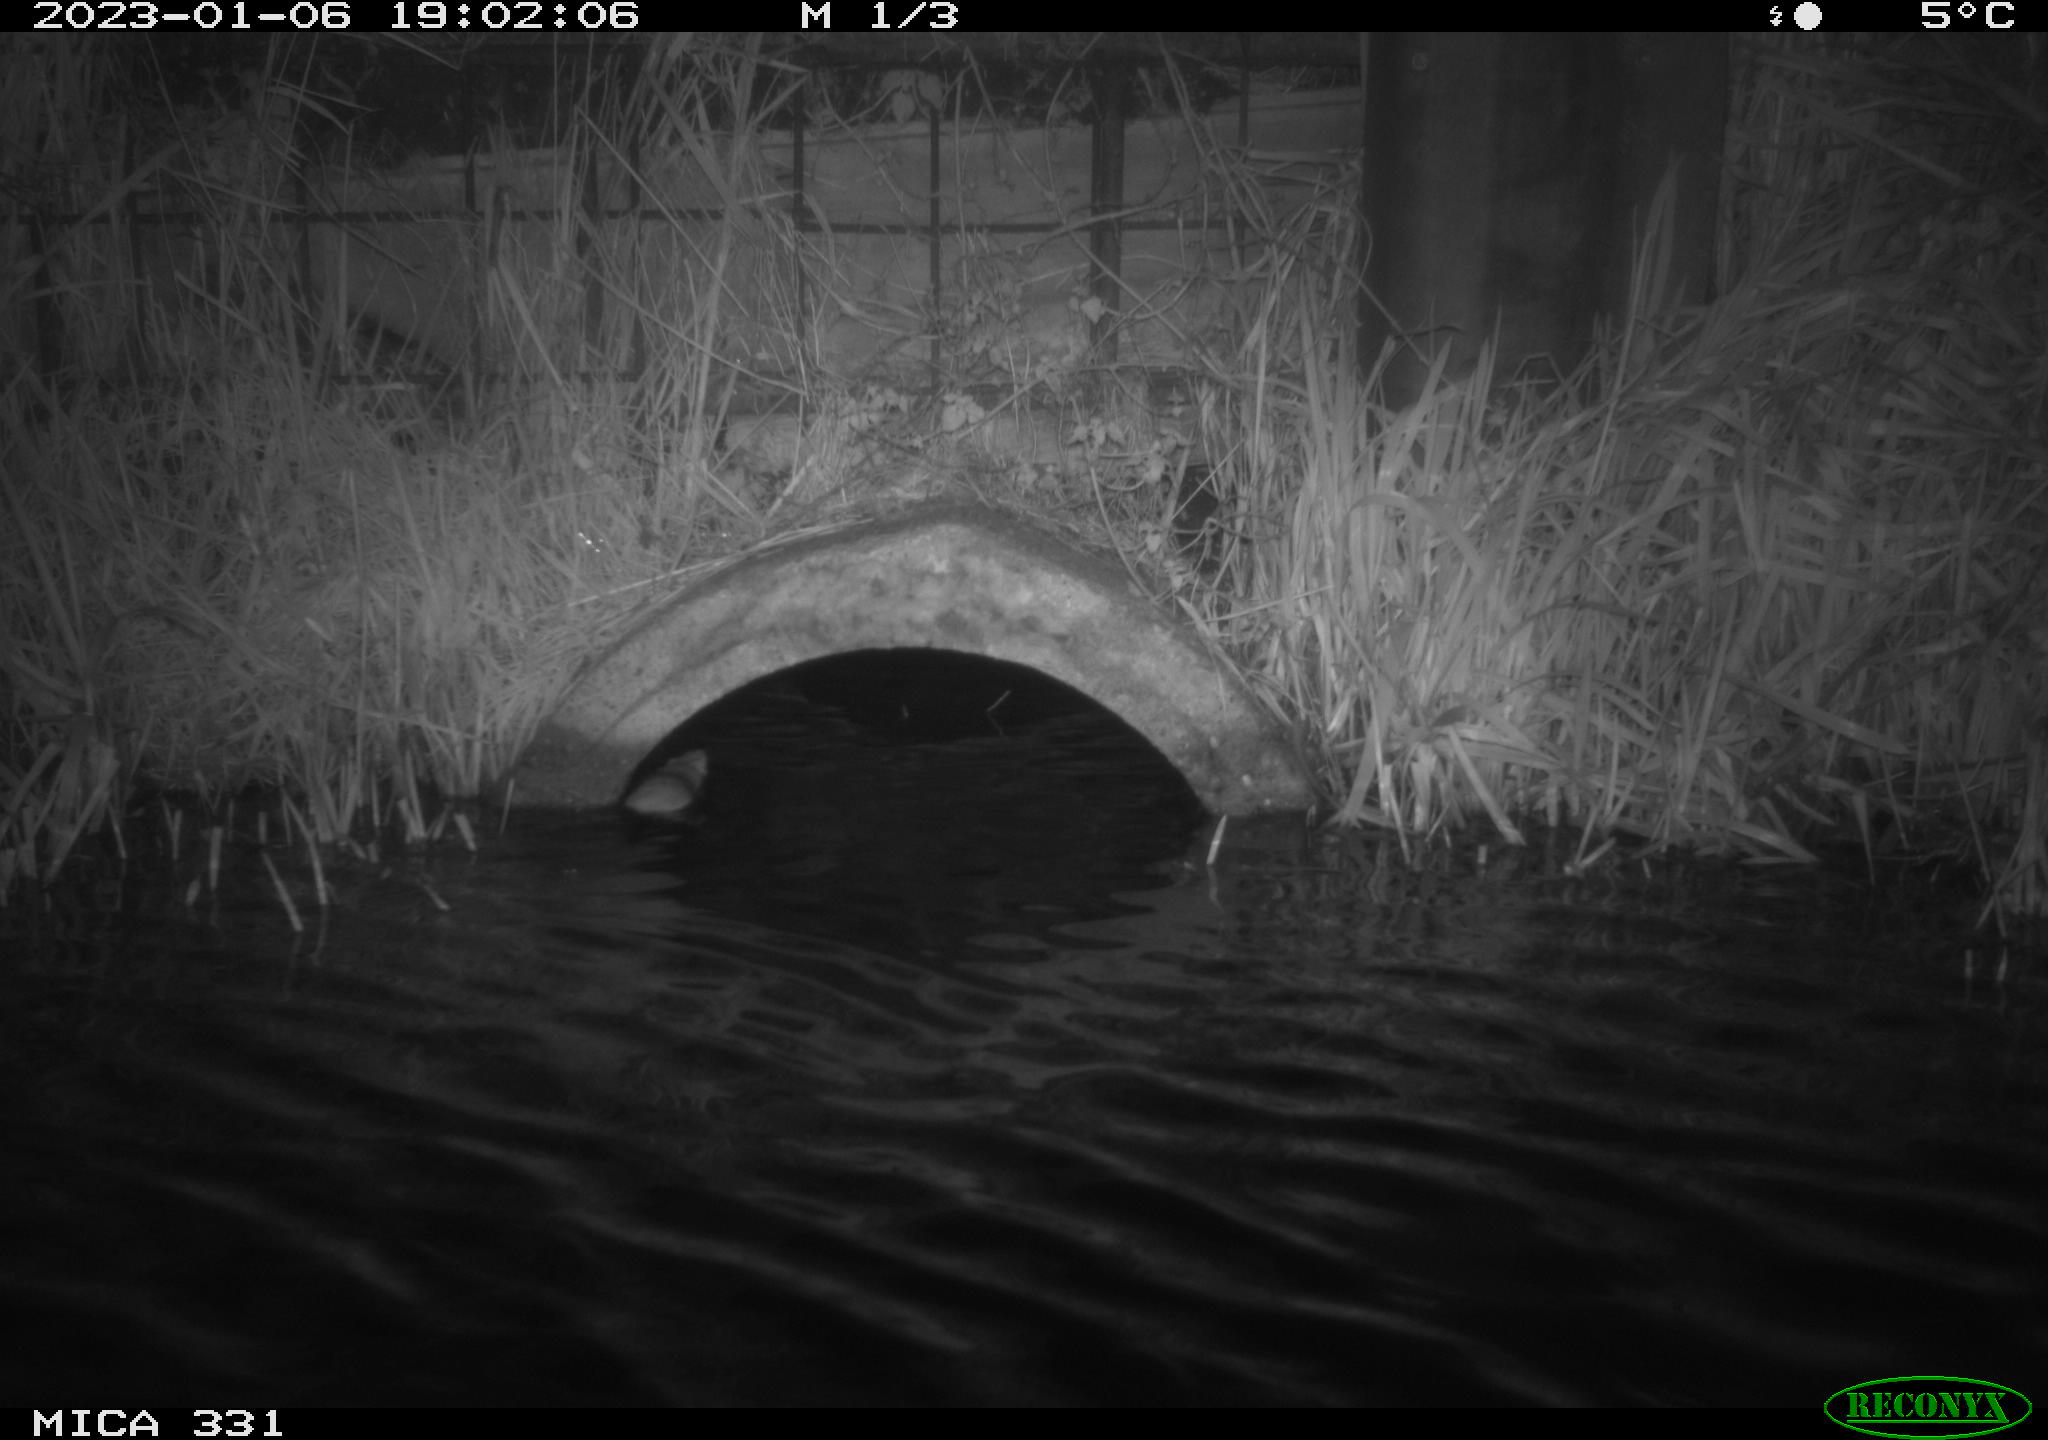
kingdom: Animalia
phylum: Chordata
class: Mammalia
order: Rodentia
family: Muridae
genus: Rattus
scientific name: Rattus norvegicus
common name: Brown rat
